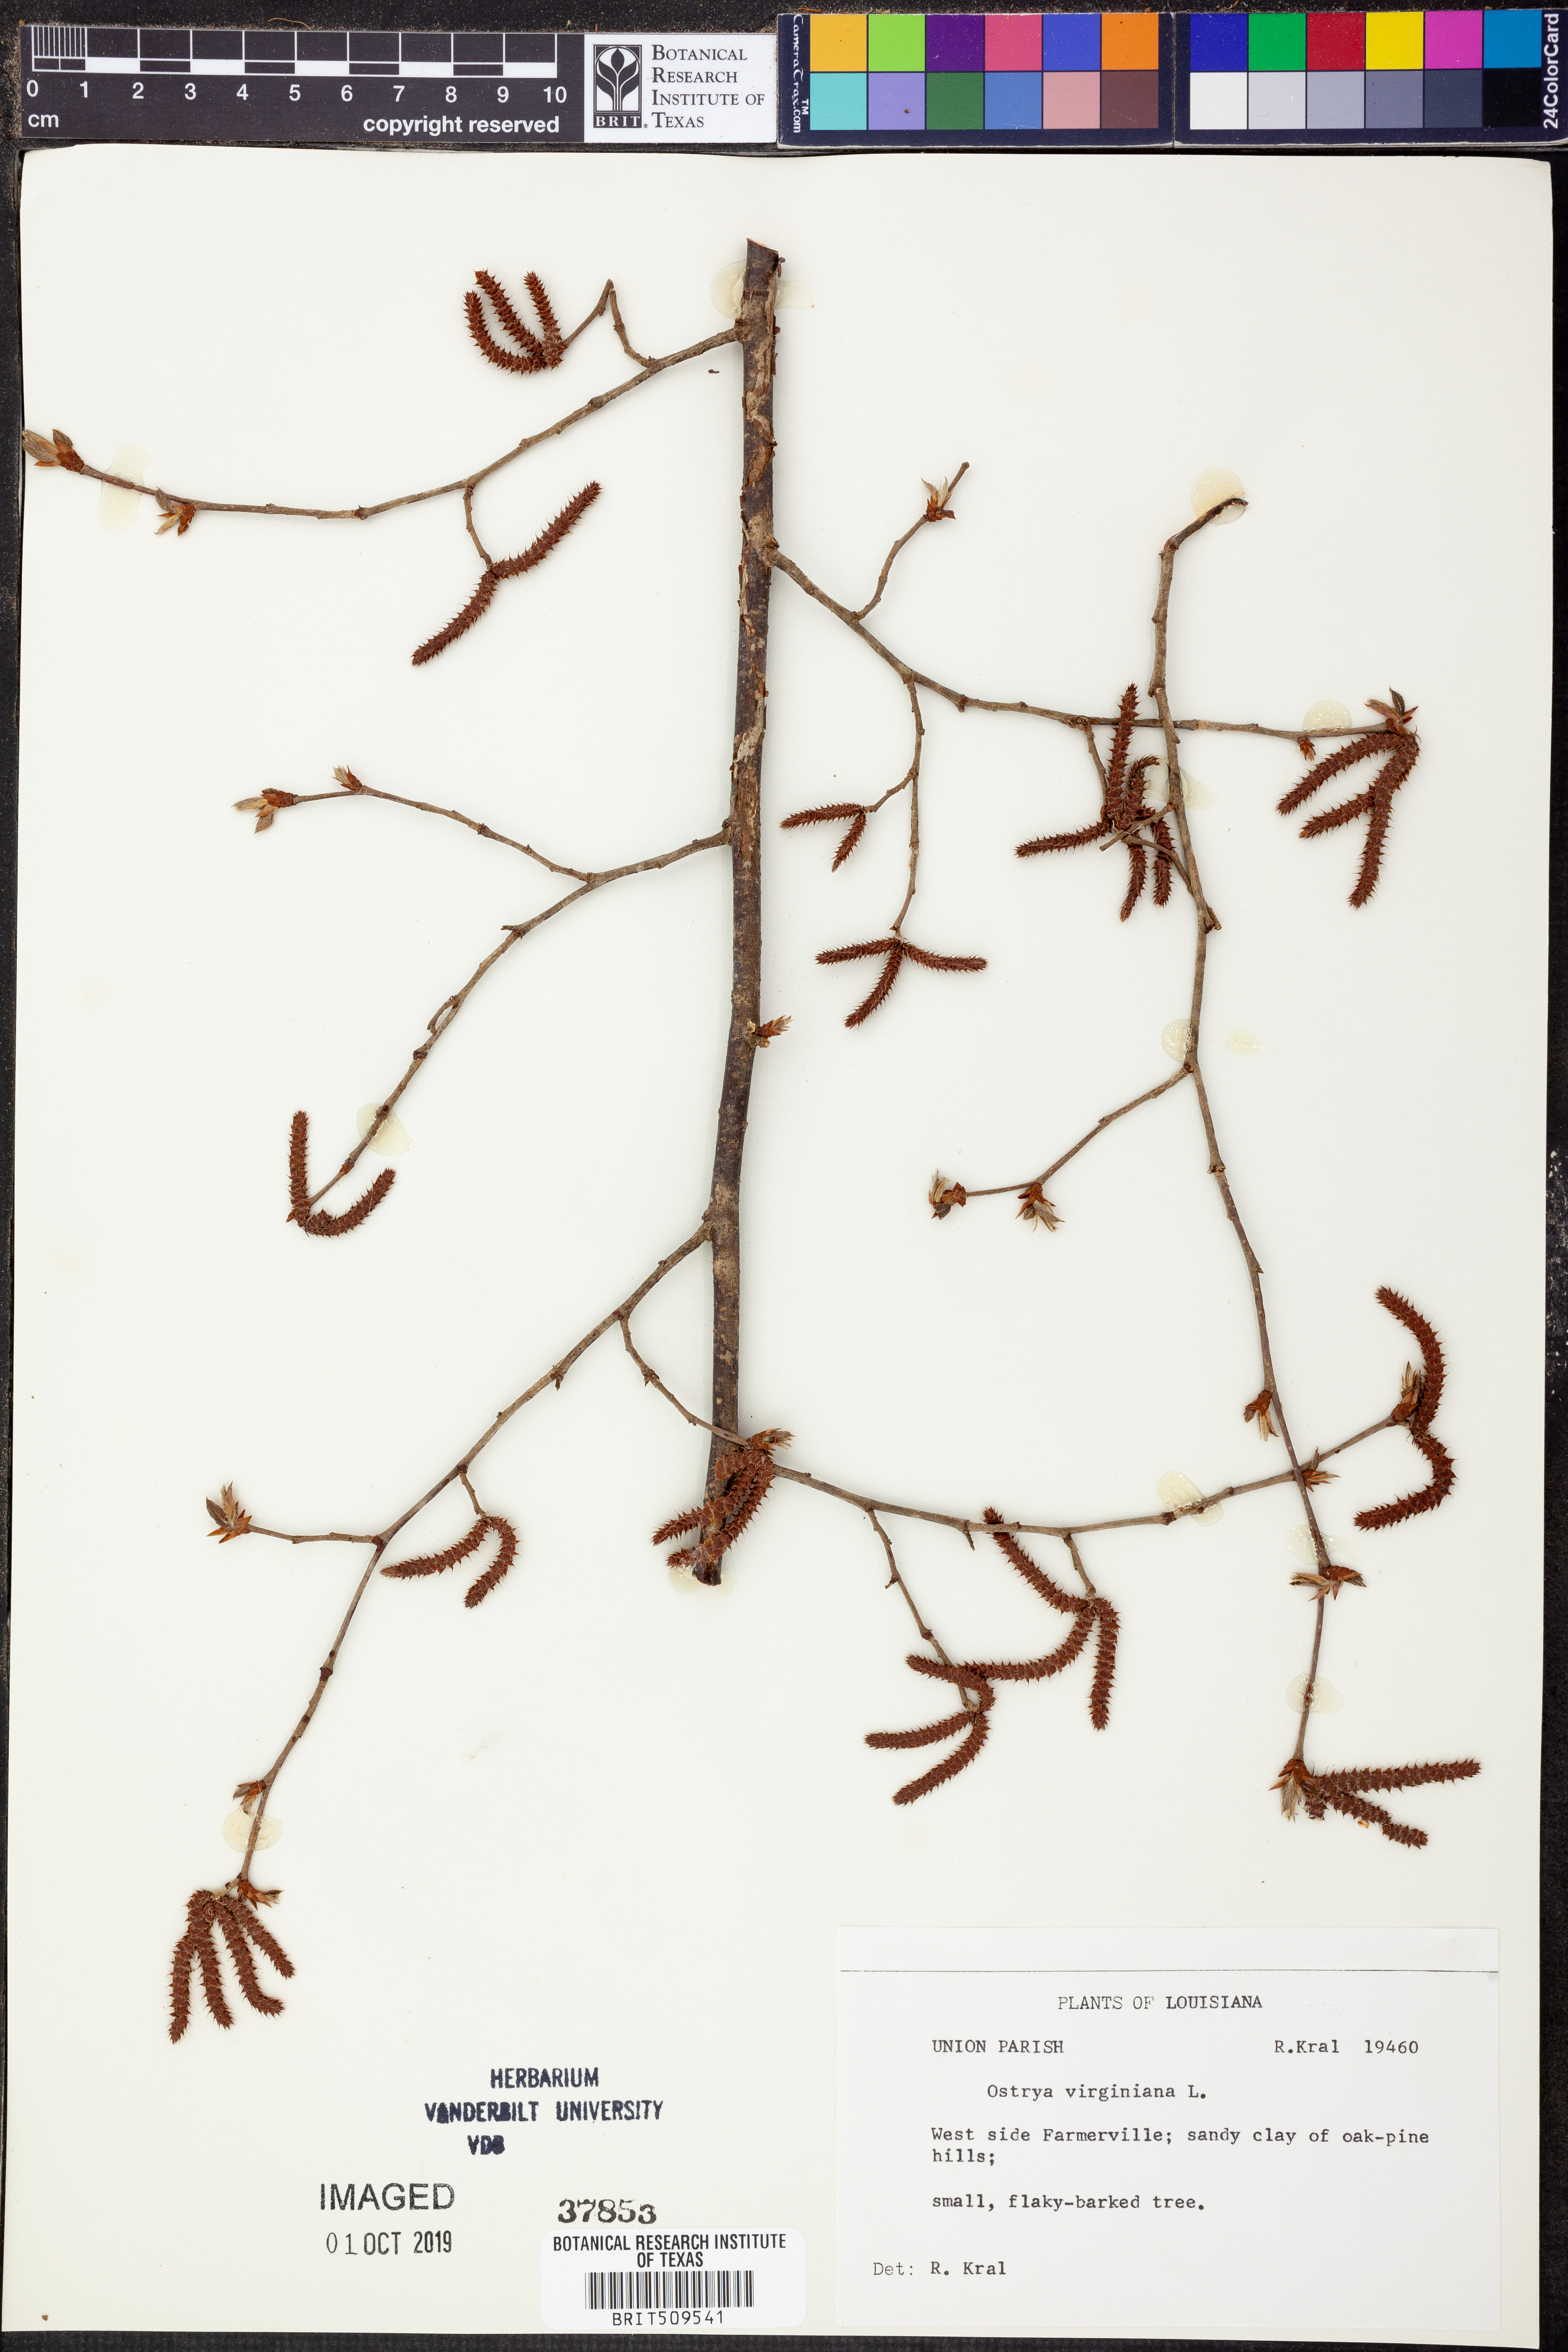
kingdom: Plantae
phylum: Tracheophyta
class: Magnoliopsida
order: Fagales
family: Betulaceae
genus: Ostrya
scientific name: Ostrya virginiana
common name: Ironwood
